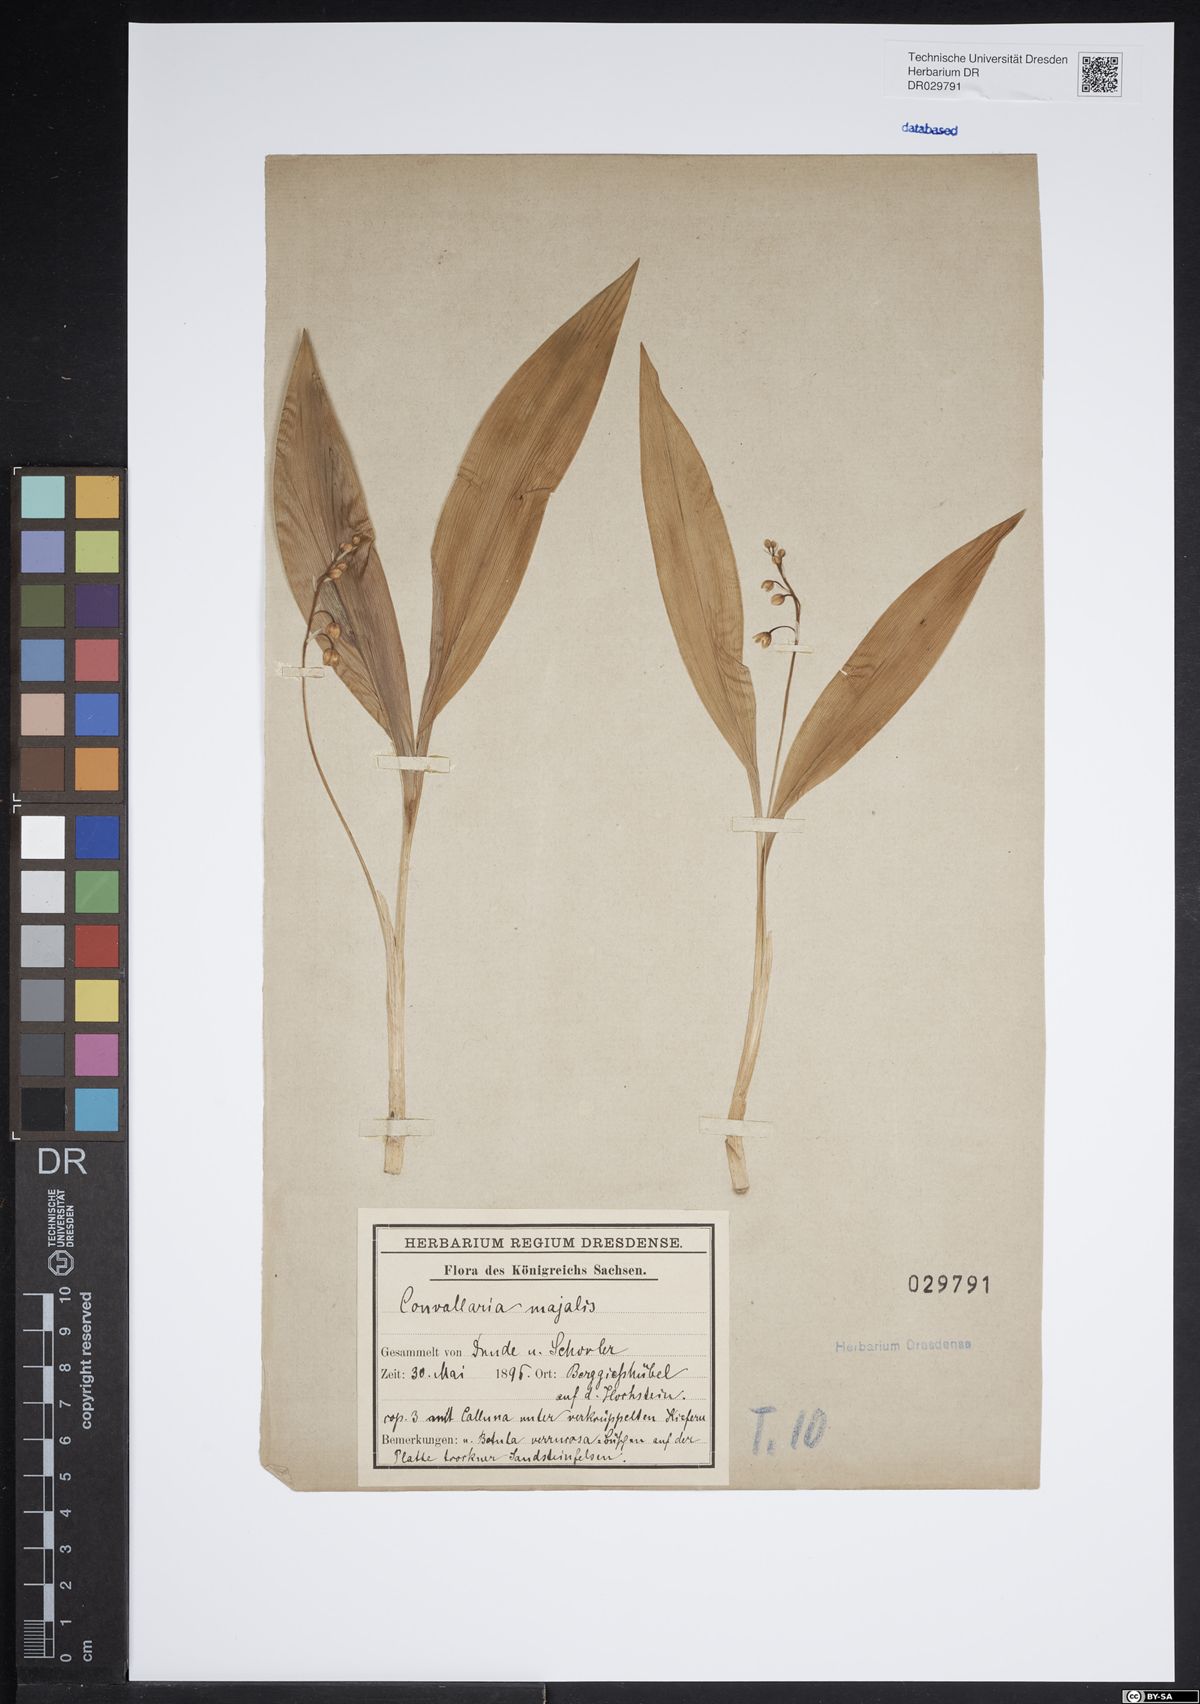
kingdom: Plantae
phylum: Tracheophyta
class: Liliopsida
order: Asparagales
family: Asparagaceae
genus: Convallaria
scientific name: Convallaria majalis
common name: Lily-of-the-valley
